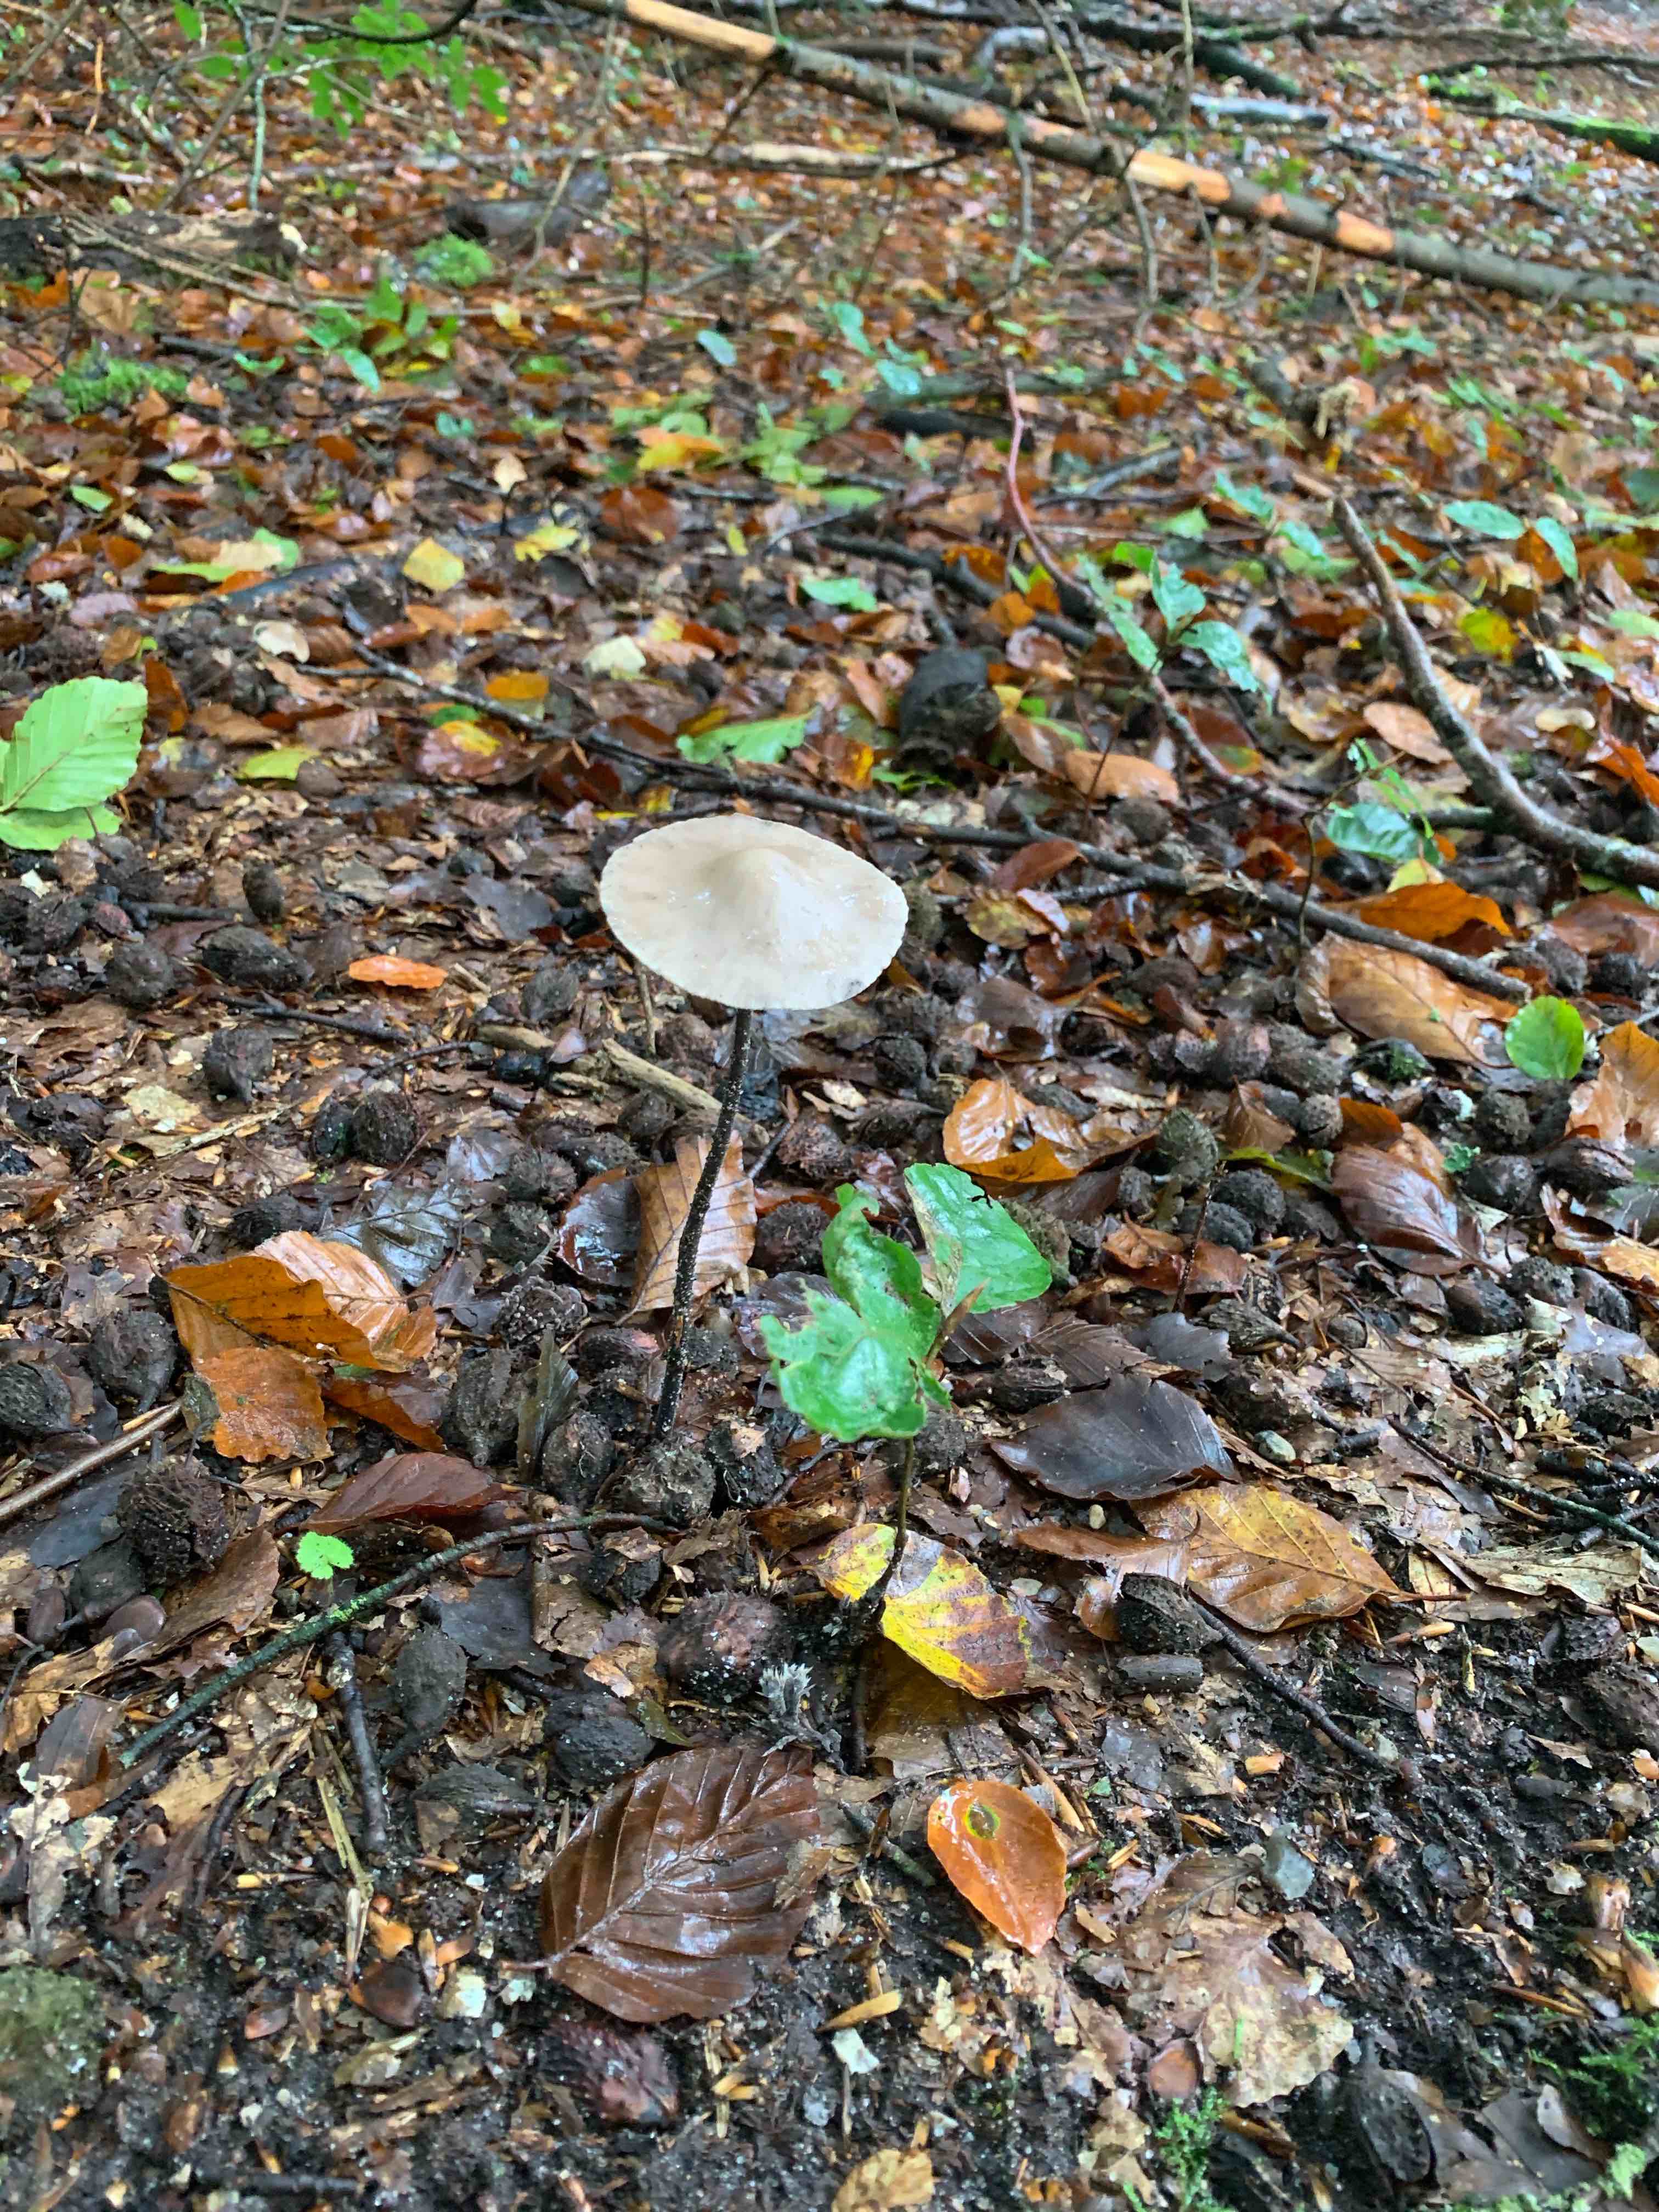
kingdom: Fungi
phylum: Basidiomycota
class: Agaricomycetes
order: Agaricales
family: Omphalotaceae
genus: Mycetinis
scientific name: Mycetinis alliaceus
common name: stor løghat
